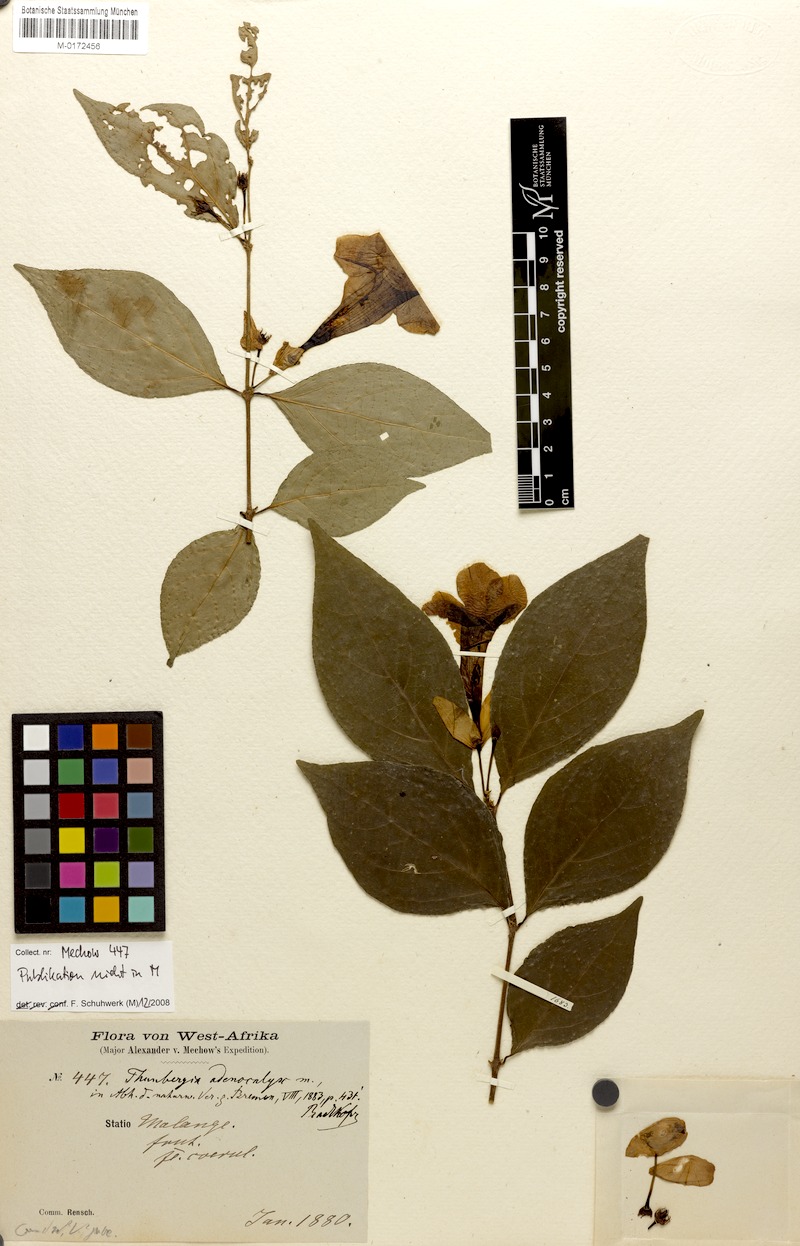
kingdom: Plantae
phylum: Tracheophyta
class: Magnoliopsida
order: Lamiales
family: Acanthaceae
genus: Thunbergia
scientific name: Thunbergia adenocalyx
